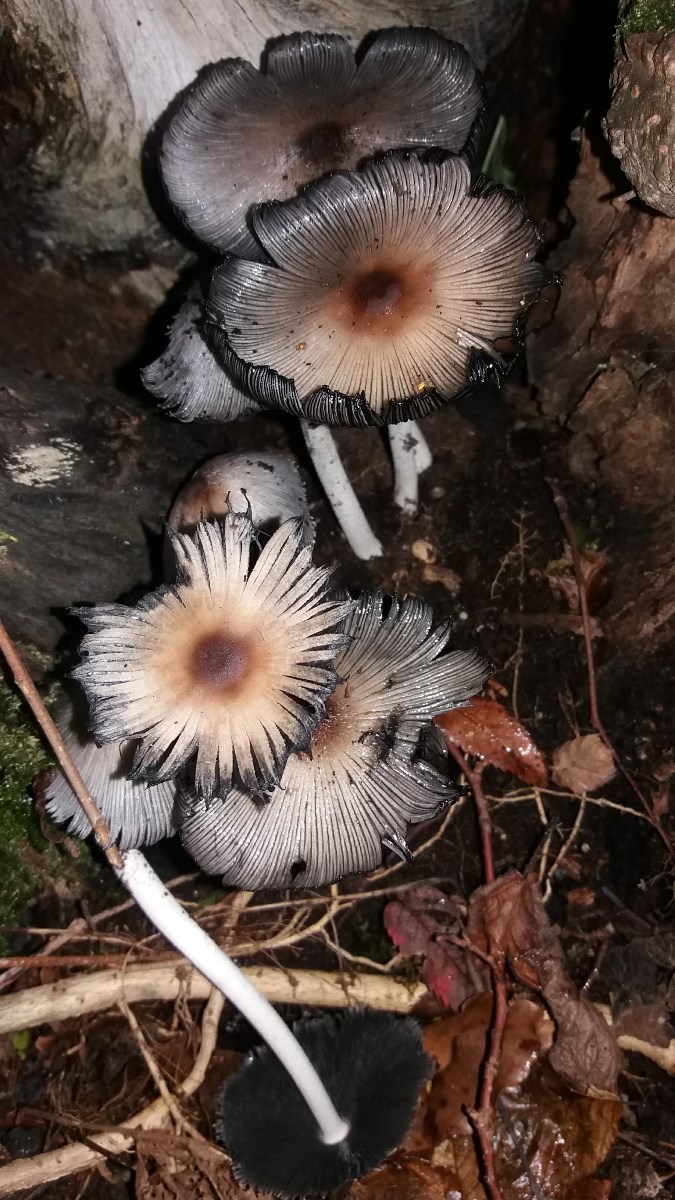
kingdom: Fungi
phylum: Basidiomycota
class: Agaricomycetes
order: Agaricales
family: Psathyrellaceae
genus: Coprinellus
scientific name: Coprinellus
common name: blækhat
